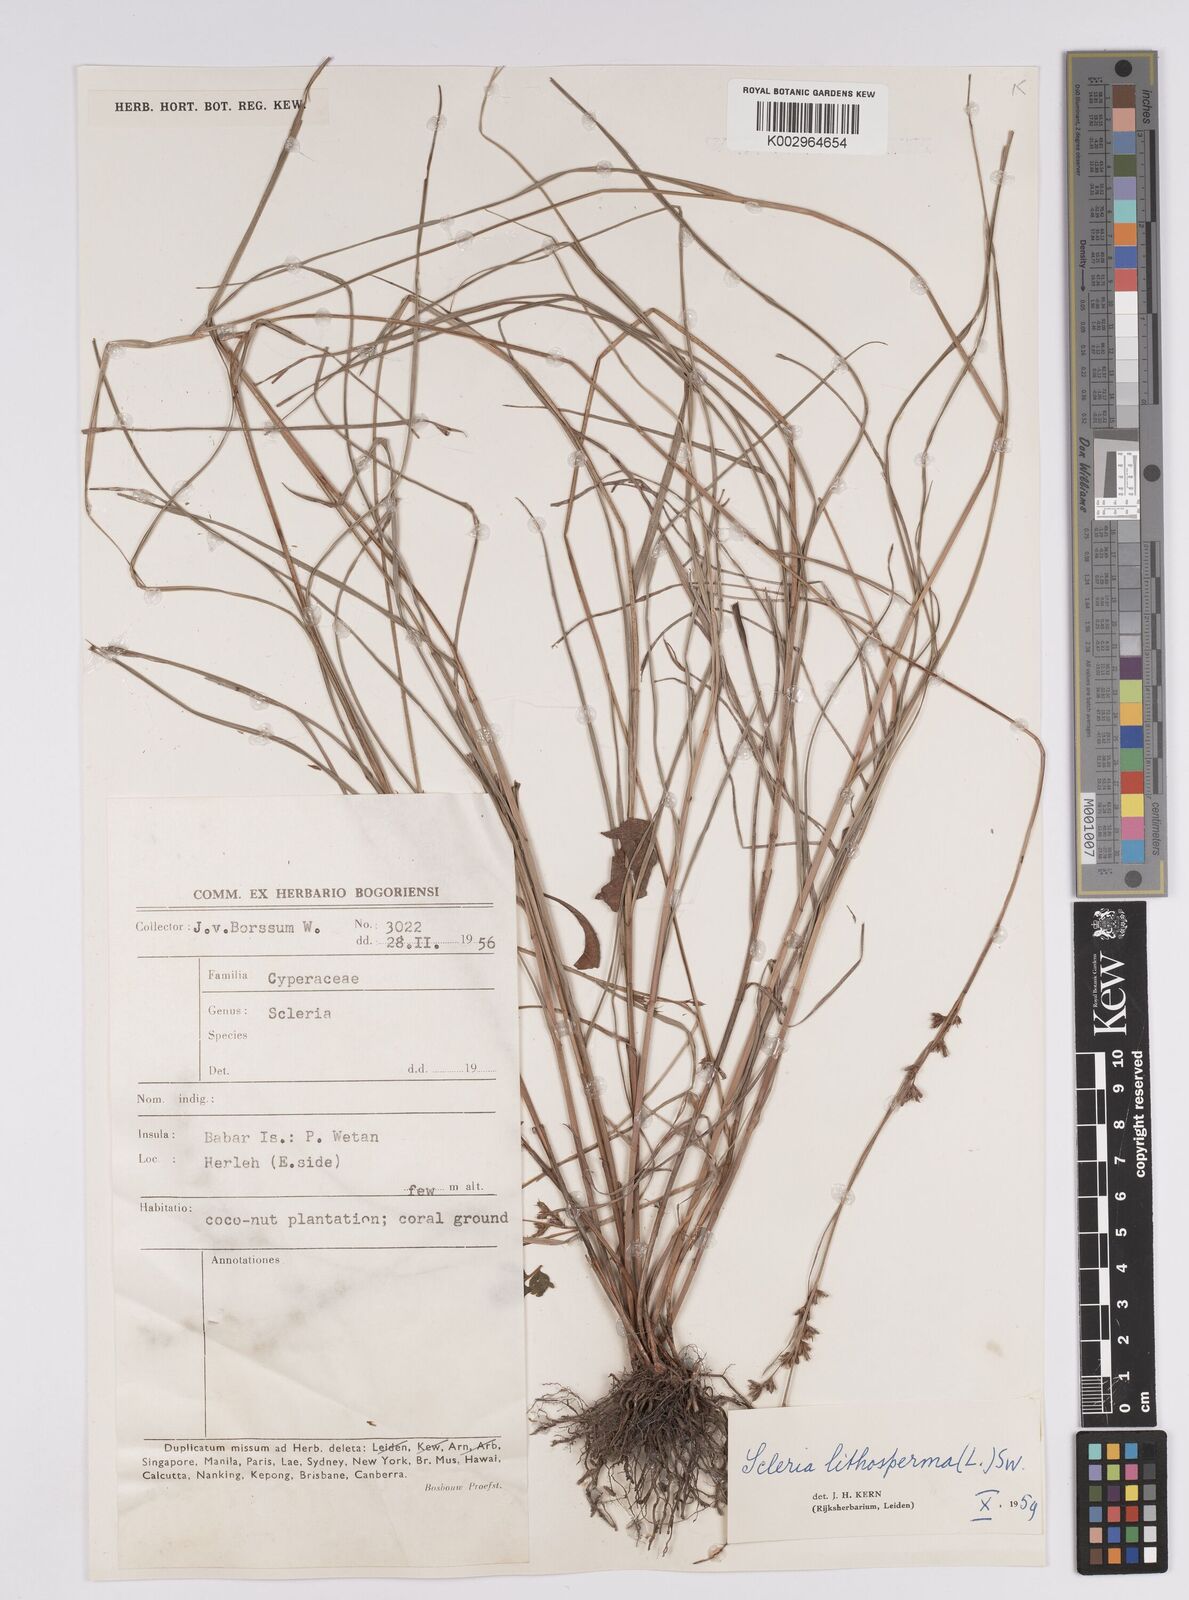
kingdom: Plantae
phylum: Tracheophyta
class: Liliopsida
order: Poales
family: Cyperaceae
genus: Scleria
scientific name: Scleria lithosperma
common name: Florida keys nut-rush
